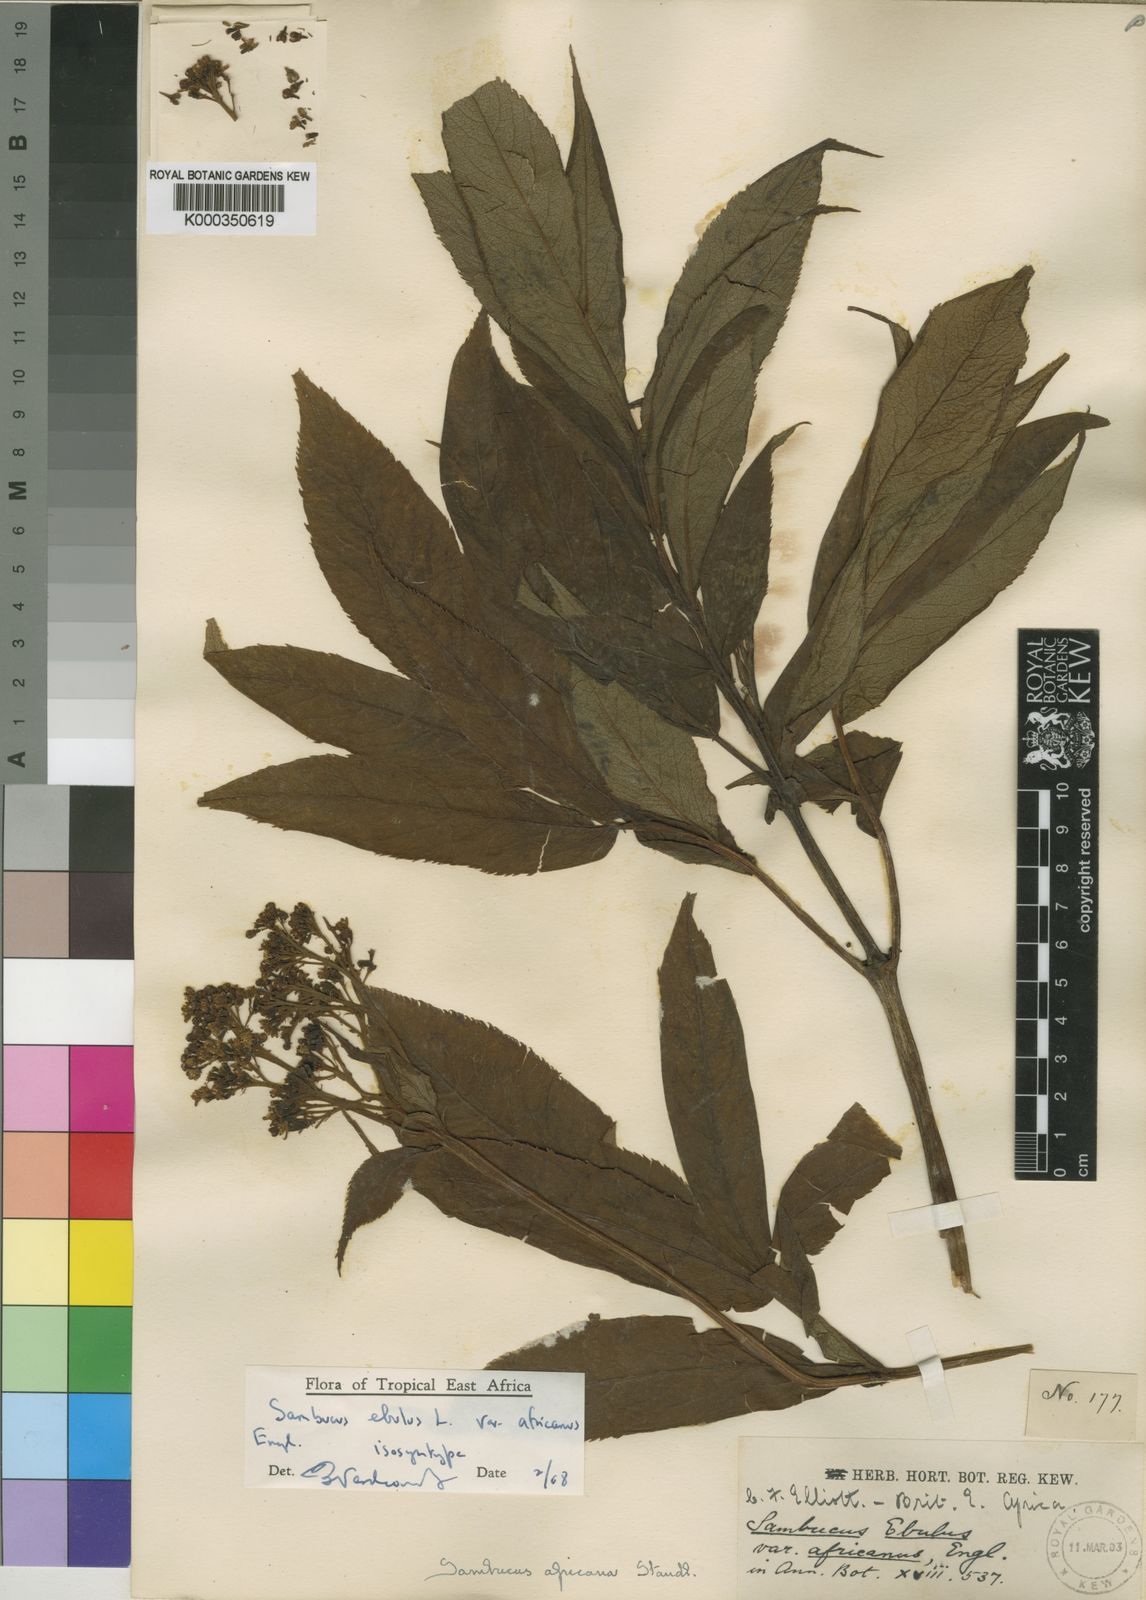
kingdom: Plantae
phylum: Tracheophyta
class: Magnoliopsida
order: Dipsacales
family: Viburnaceae
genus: Sambucus
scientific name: Sambucus africana
